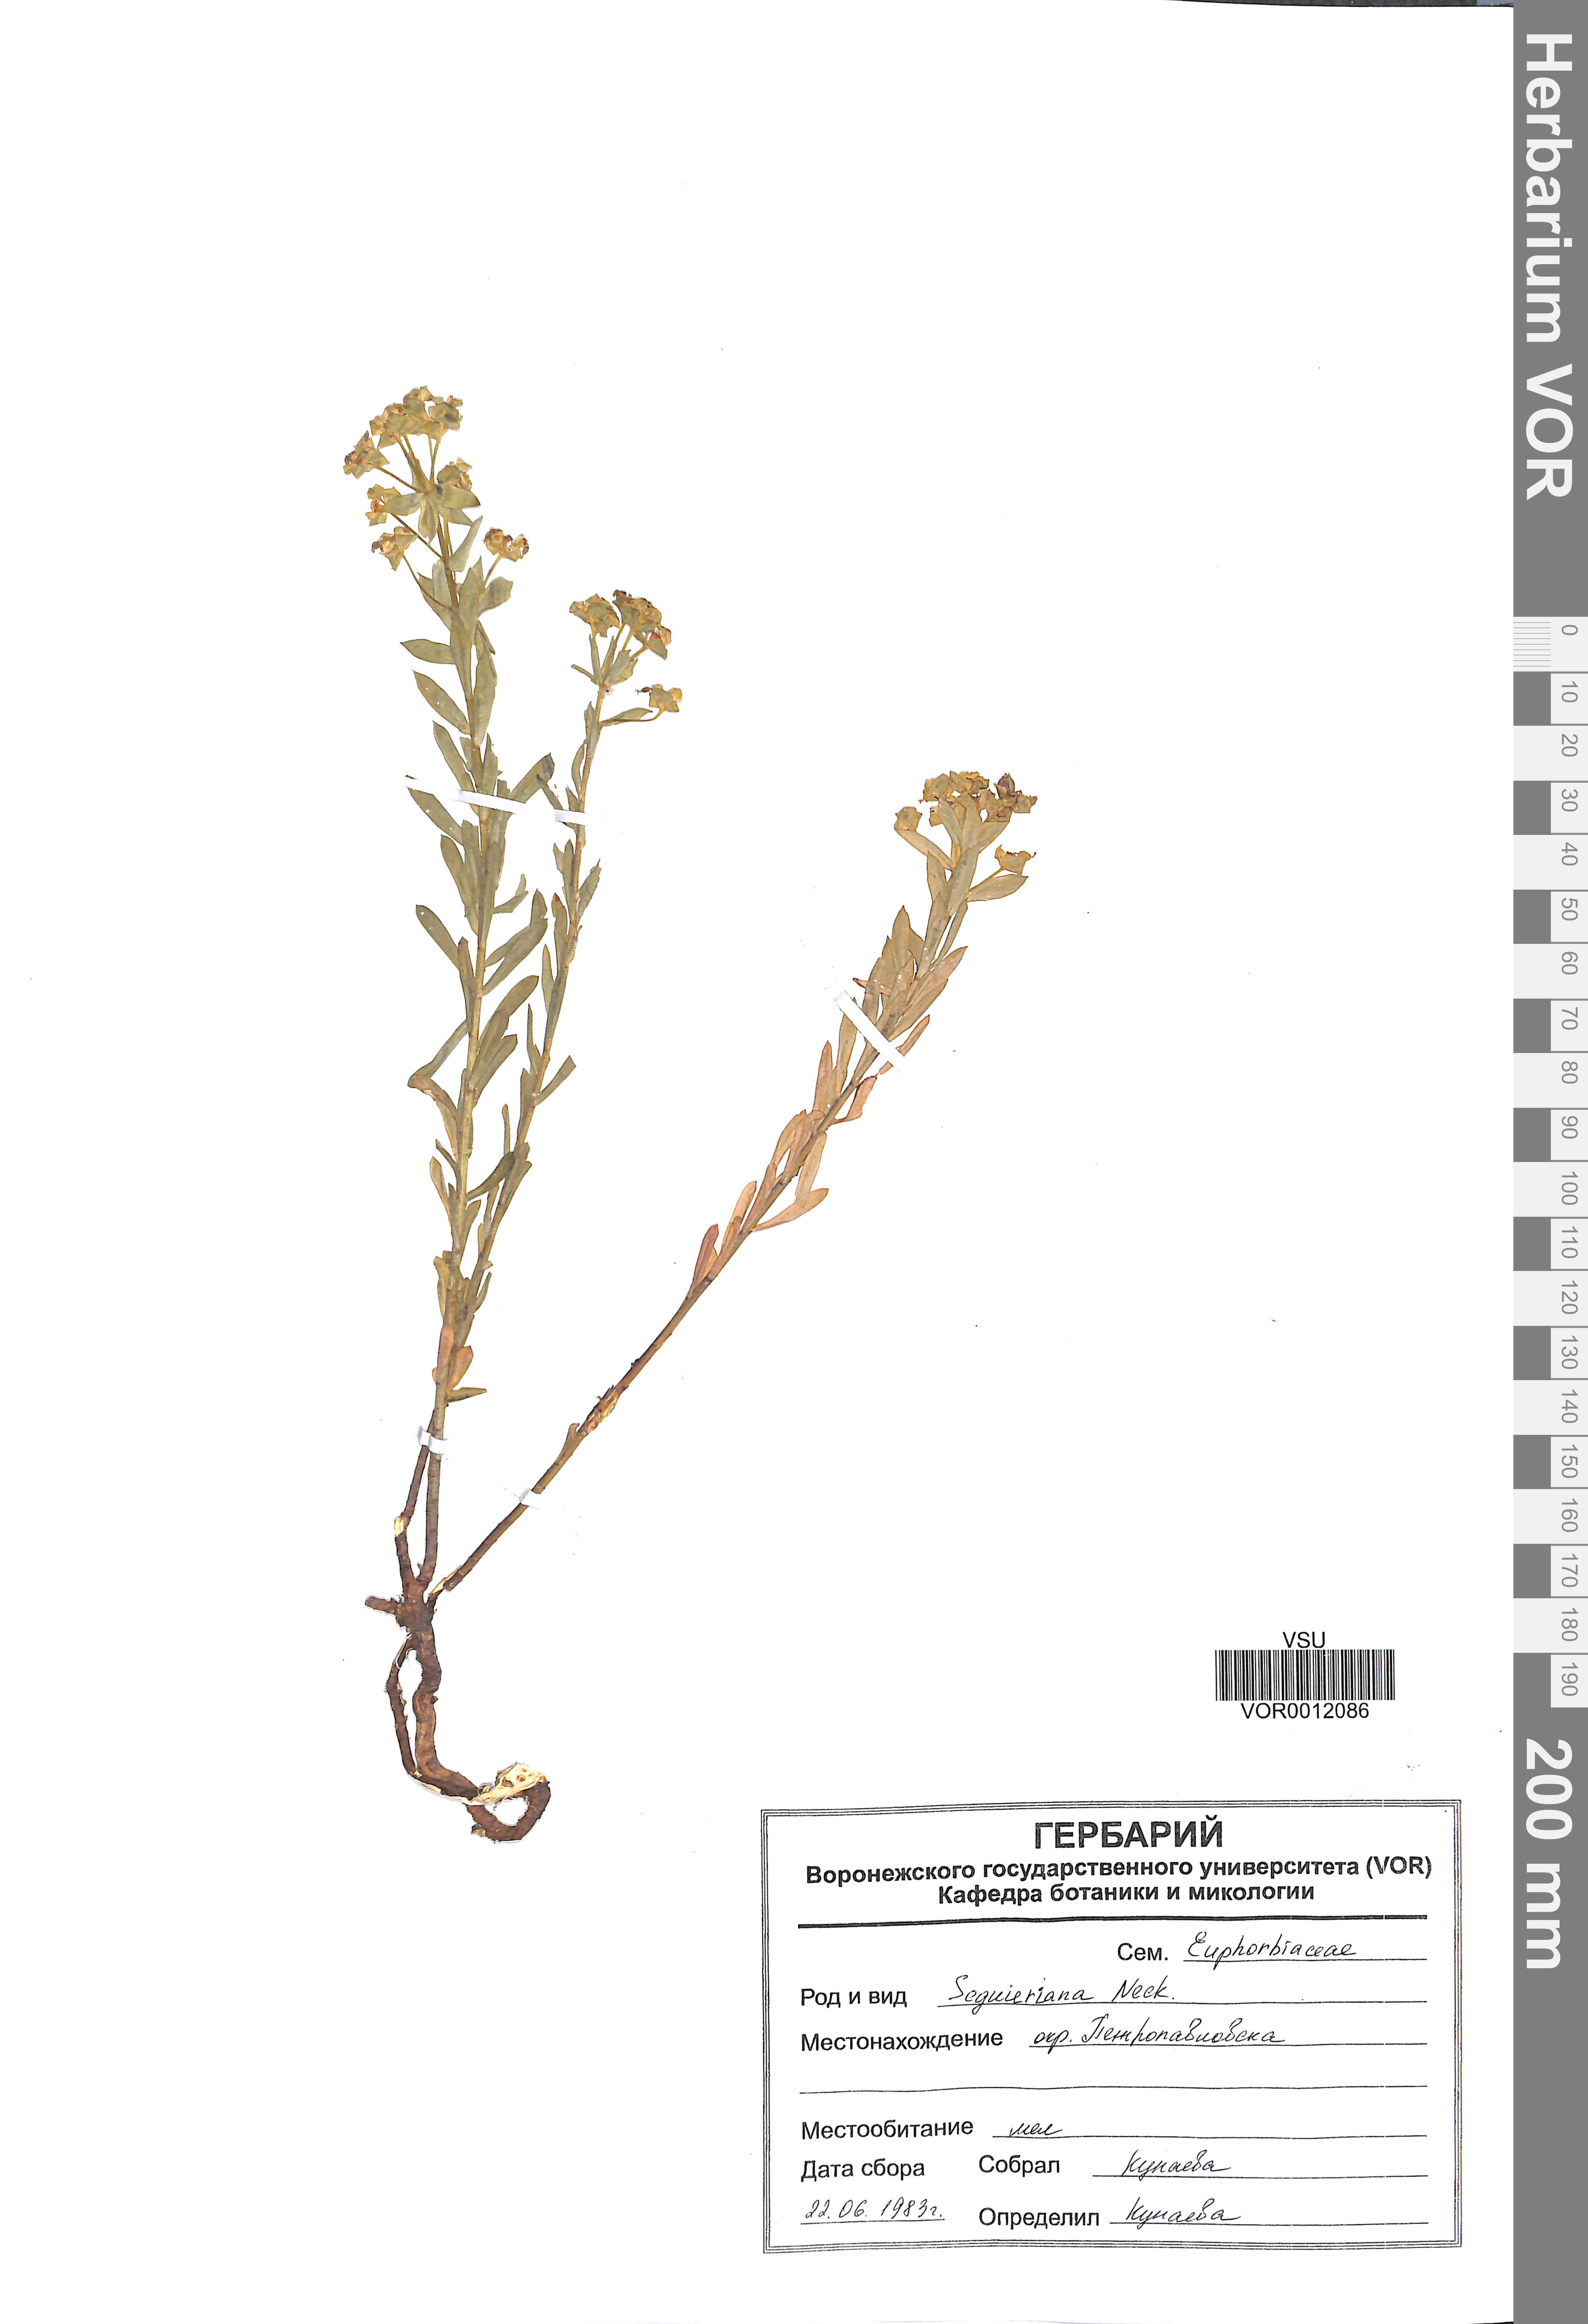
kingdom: Plantae
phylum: Tracheophyta
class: Magnoliopsida
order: Malpighiales
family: Euphorbiaceae
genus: Euphorbia
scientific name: Euphorbia seguieriana
